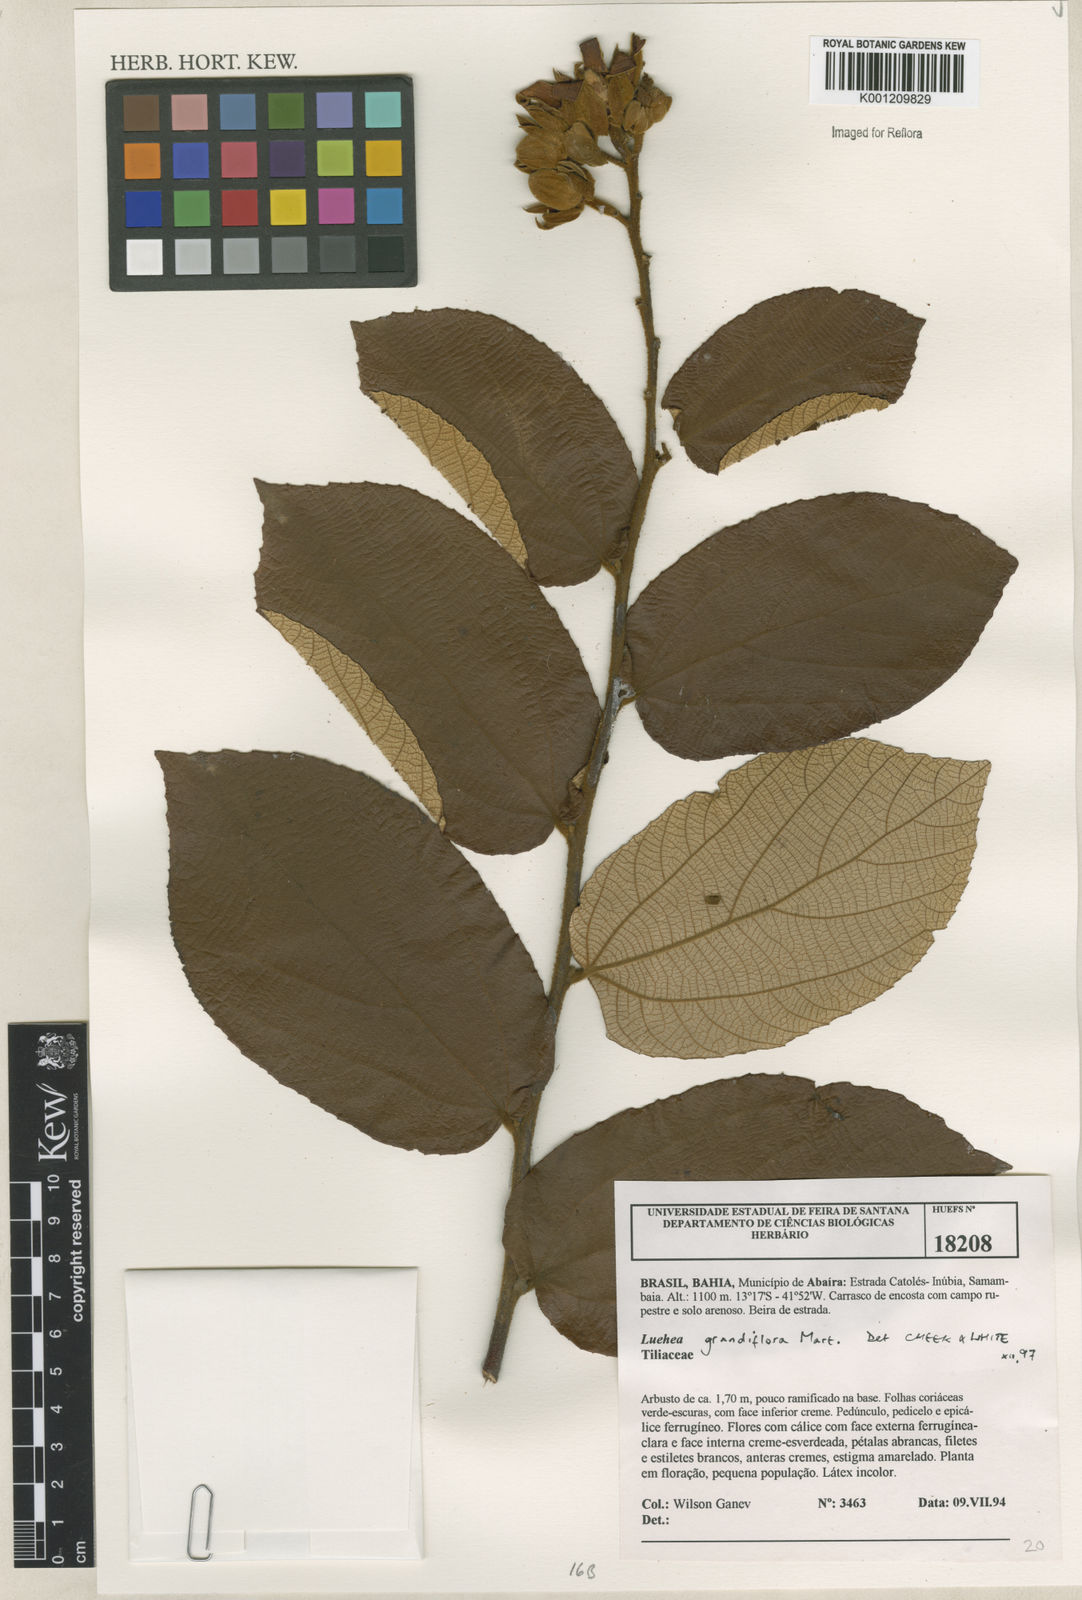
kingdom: Plantae
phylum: Tracheophyta
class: Magnoliopsida
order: Malvales
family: Malvaceae
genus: Luehea
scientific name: Luehea grandiflora
